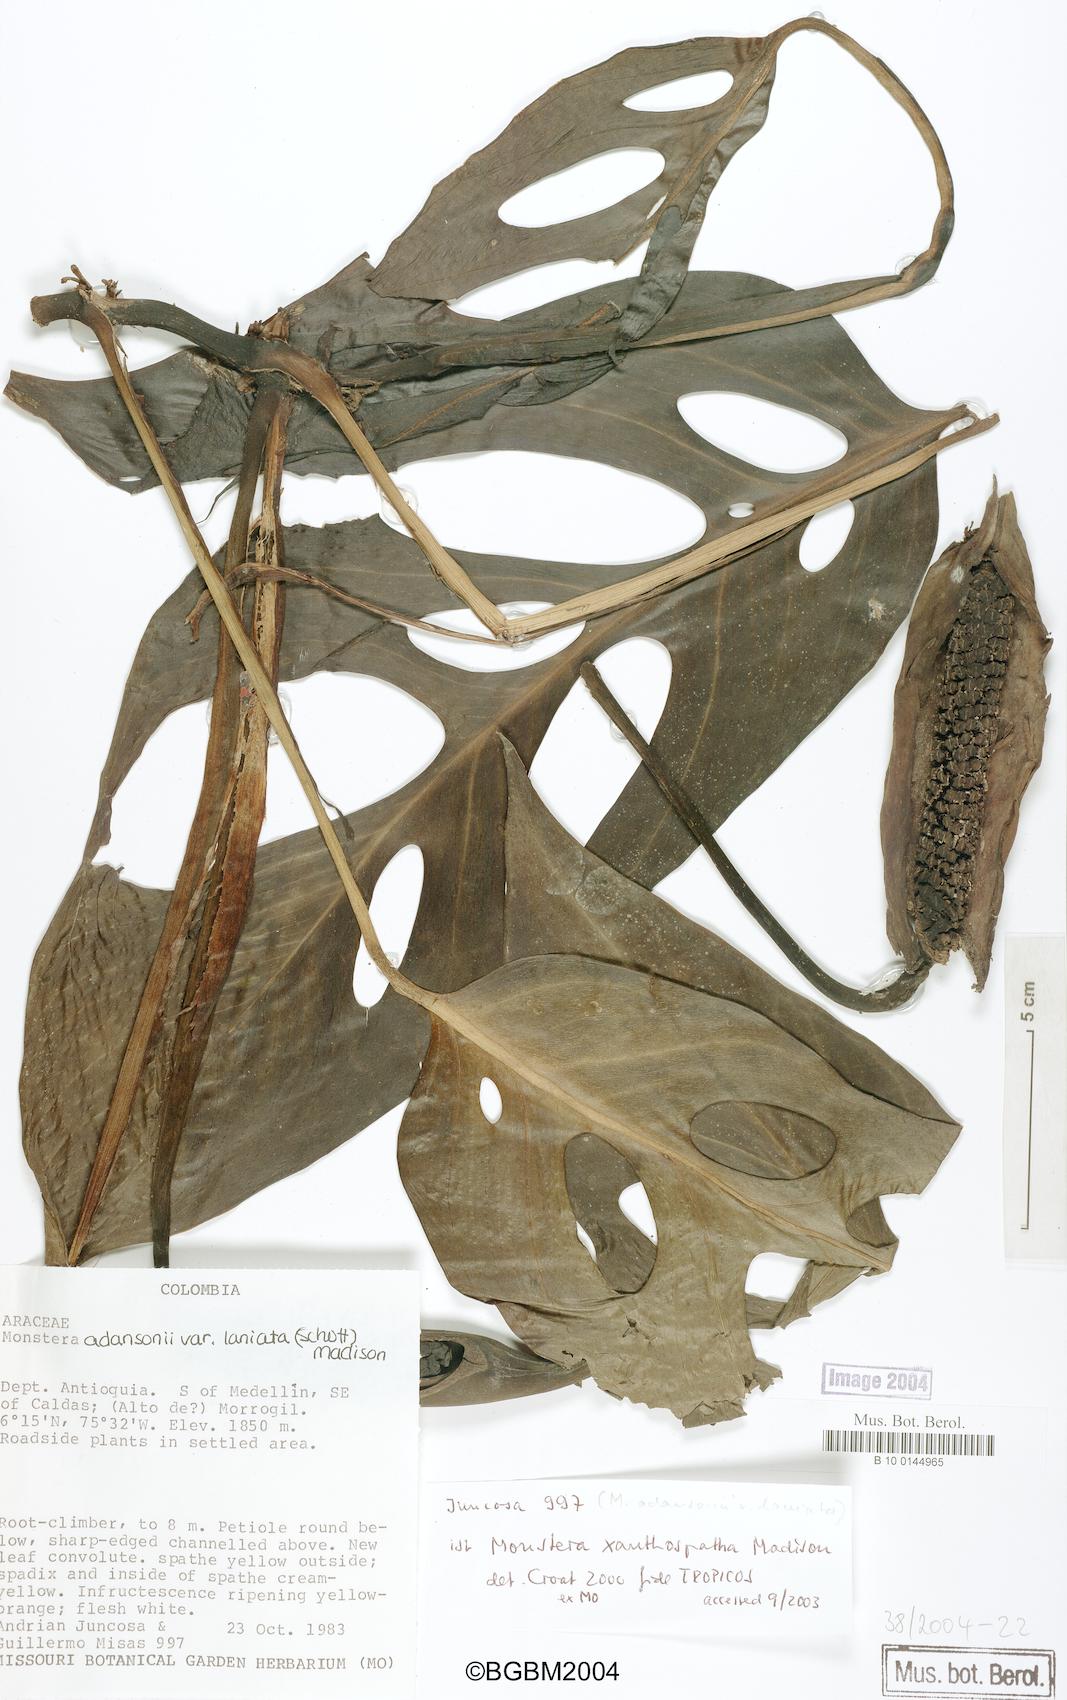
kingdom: Plantae
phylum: Tracheophyta
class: Liliopsida
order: Alismatales
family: Araceae
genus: Monstera
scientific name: Monstera xanthospatha
